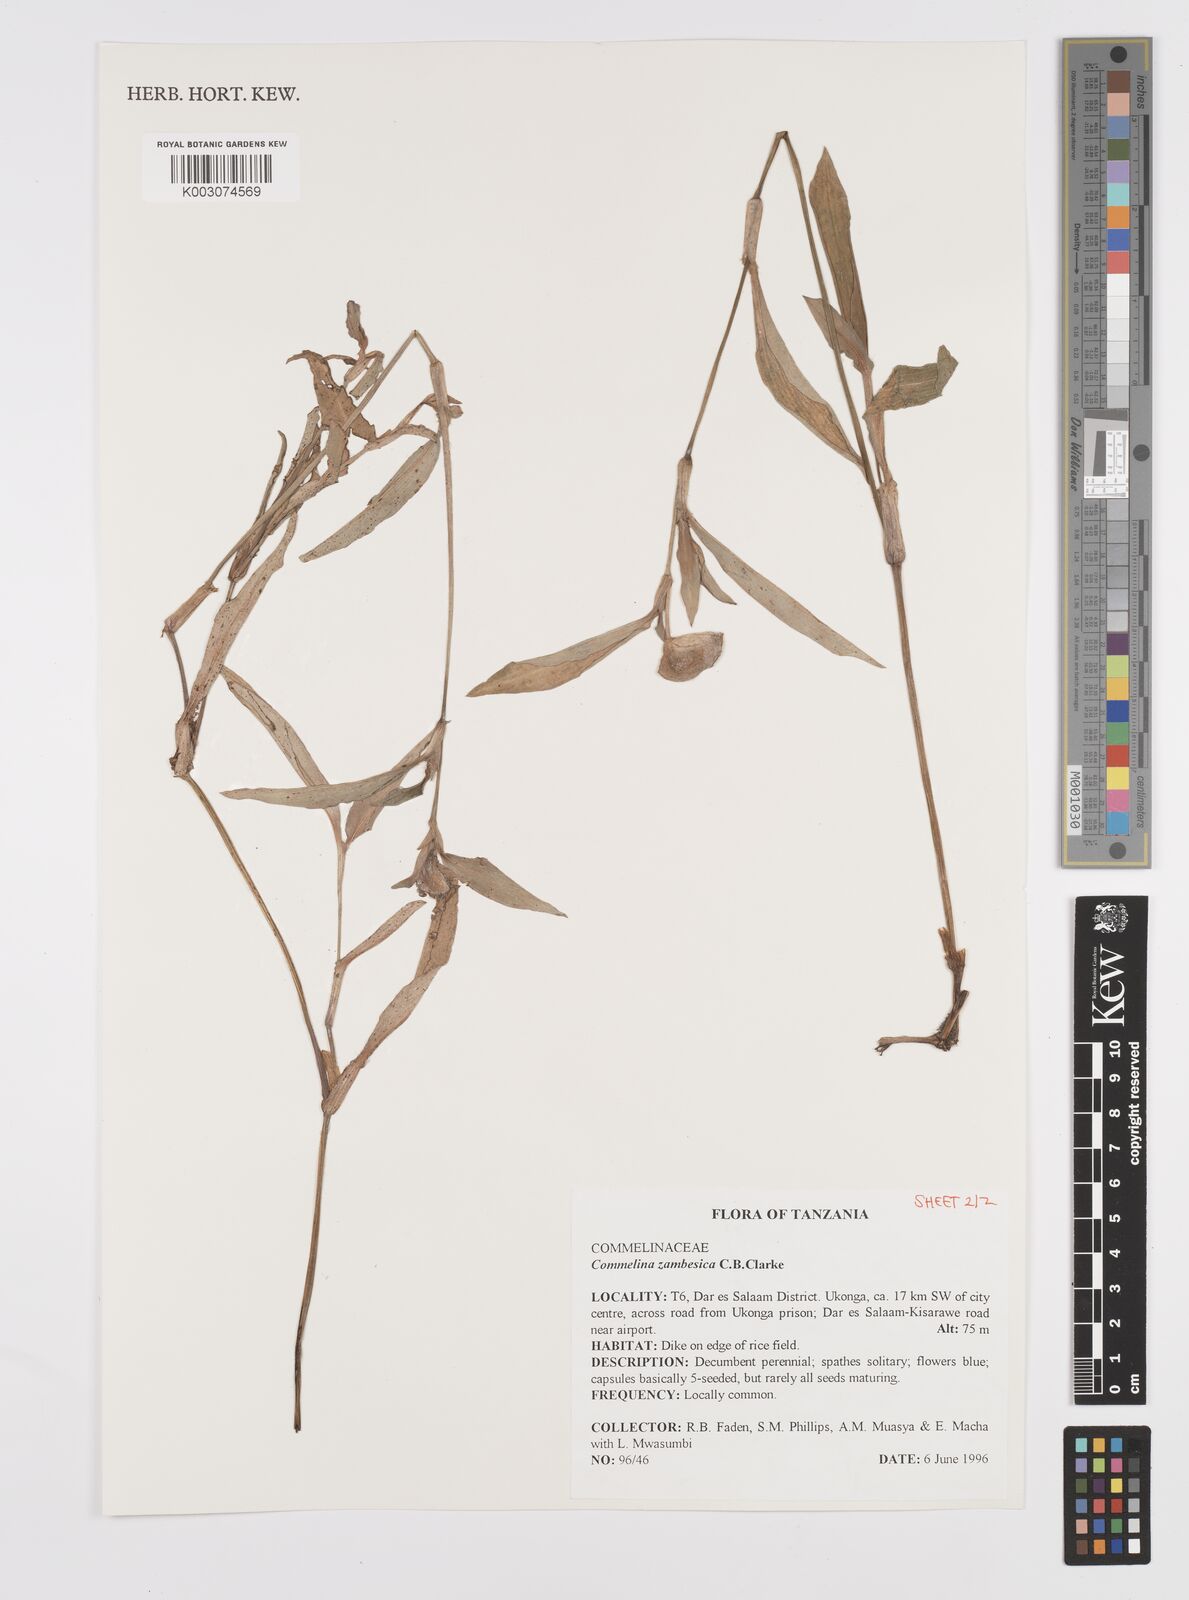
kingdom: Plantae
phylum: Tracheophyta
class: Liliopsida
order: Commelinales
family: Commelinaceae
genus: Commelina
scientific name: Commelina zambesica
